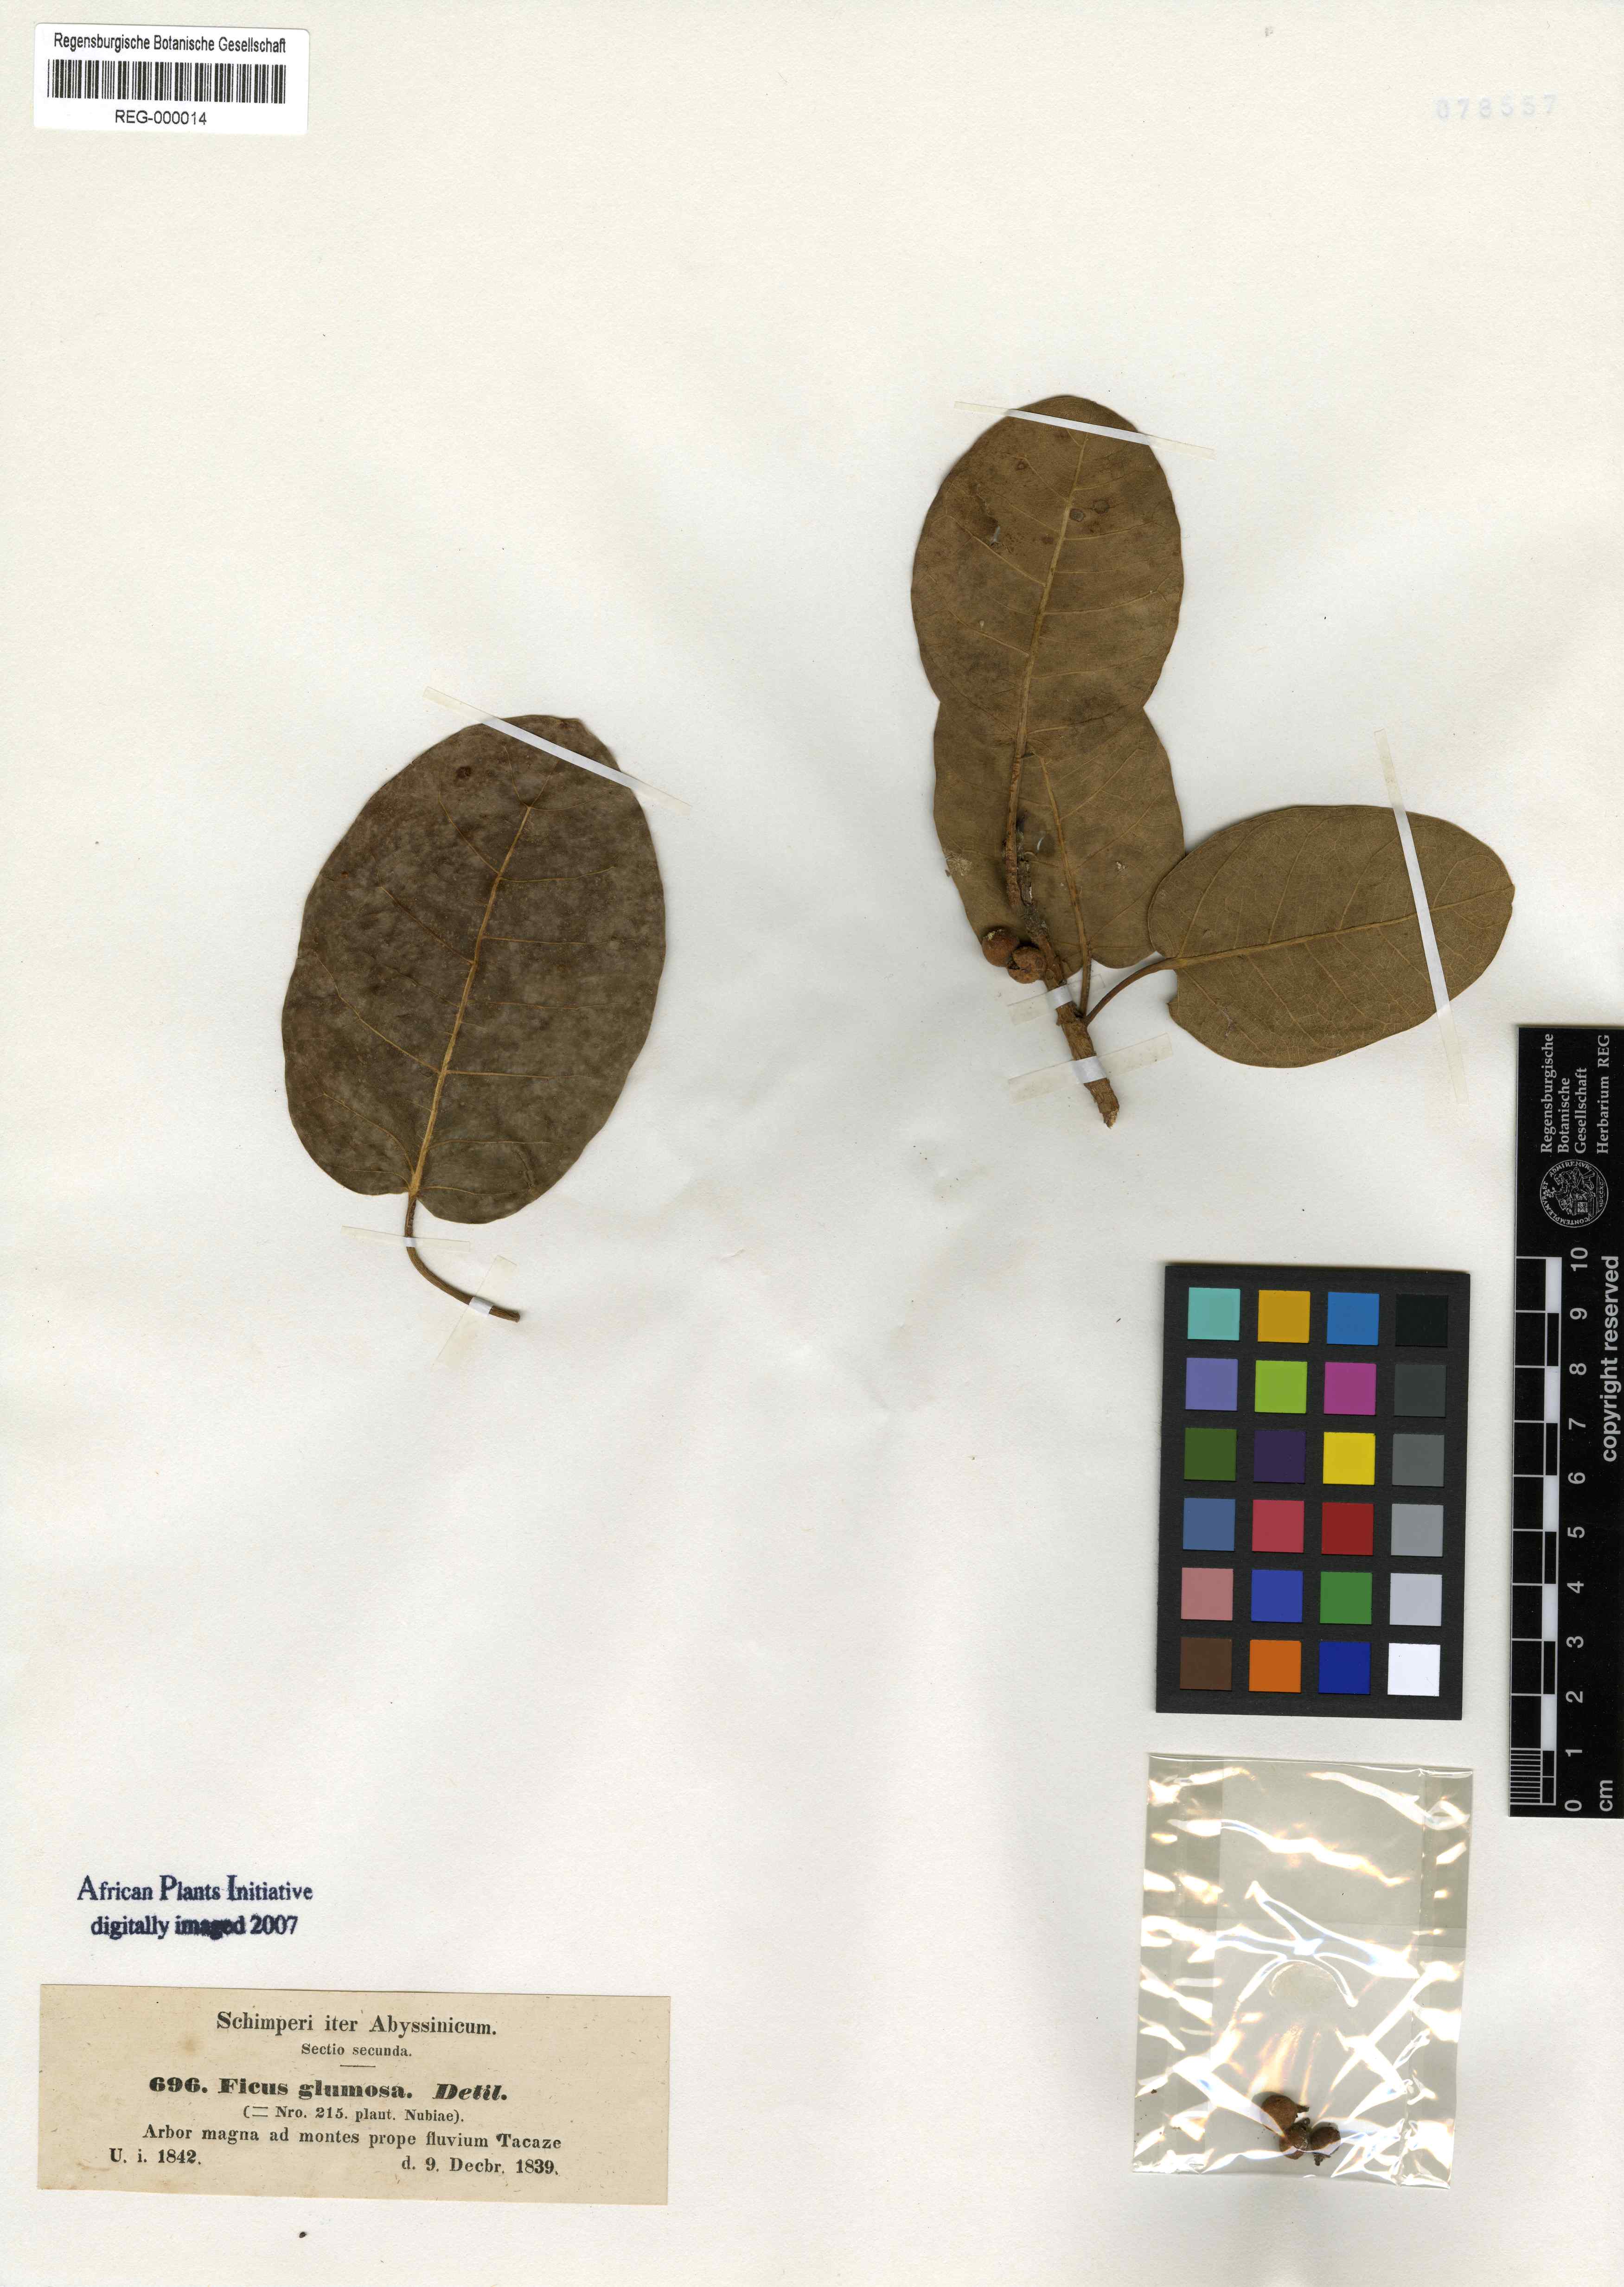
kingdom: Plantae
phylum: Tracheophyta
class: Magnoliopsida
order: Rosales
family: Moraceae
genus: Ficus
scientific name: Ficus glumosa
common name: Hairy rock fig
